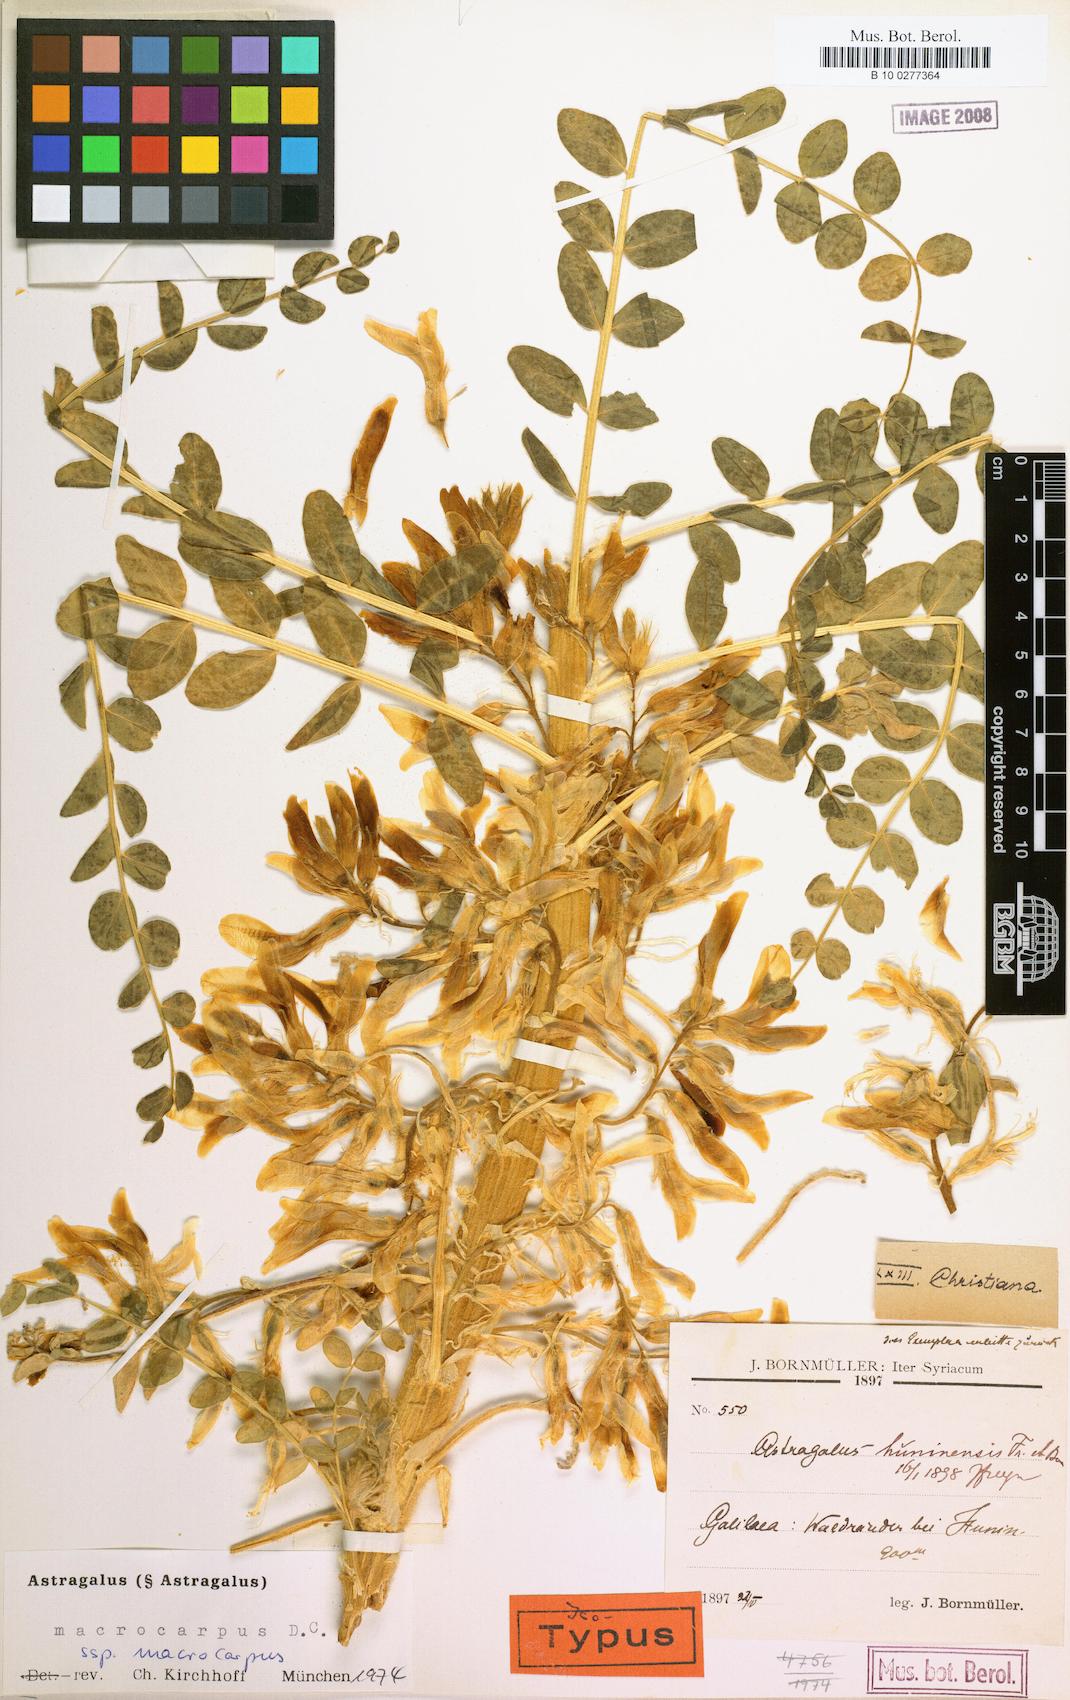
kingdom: Plantae
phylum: Tracheophyta
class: Magnoliopsida
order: Fabales
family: Fabaceae
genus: Astragalus
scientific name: Astragalus macrocarpus
